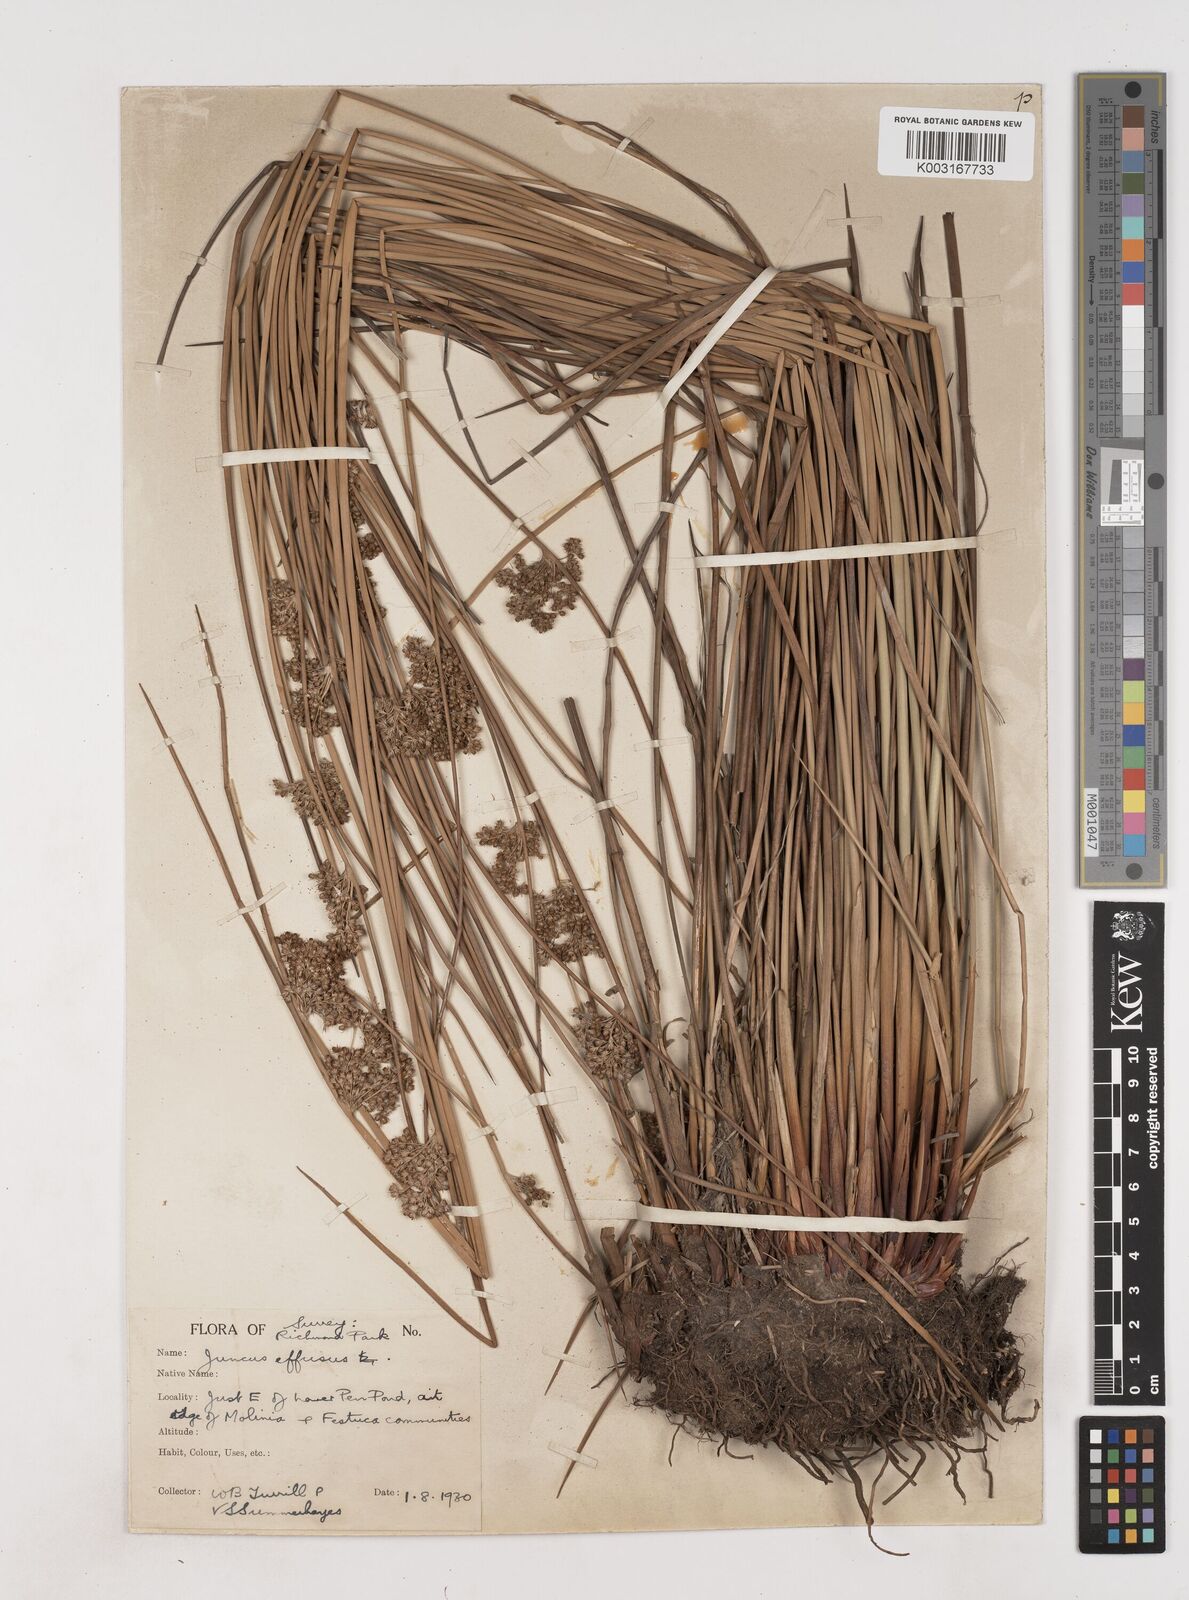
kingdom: Plantae
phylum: Tracheophyta
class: Liliopsida
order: Poales
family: Juncaceae
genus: Juncus
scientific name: Juncus effusus
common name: Soft rush
